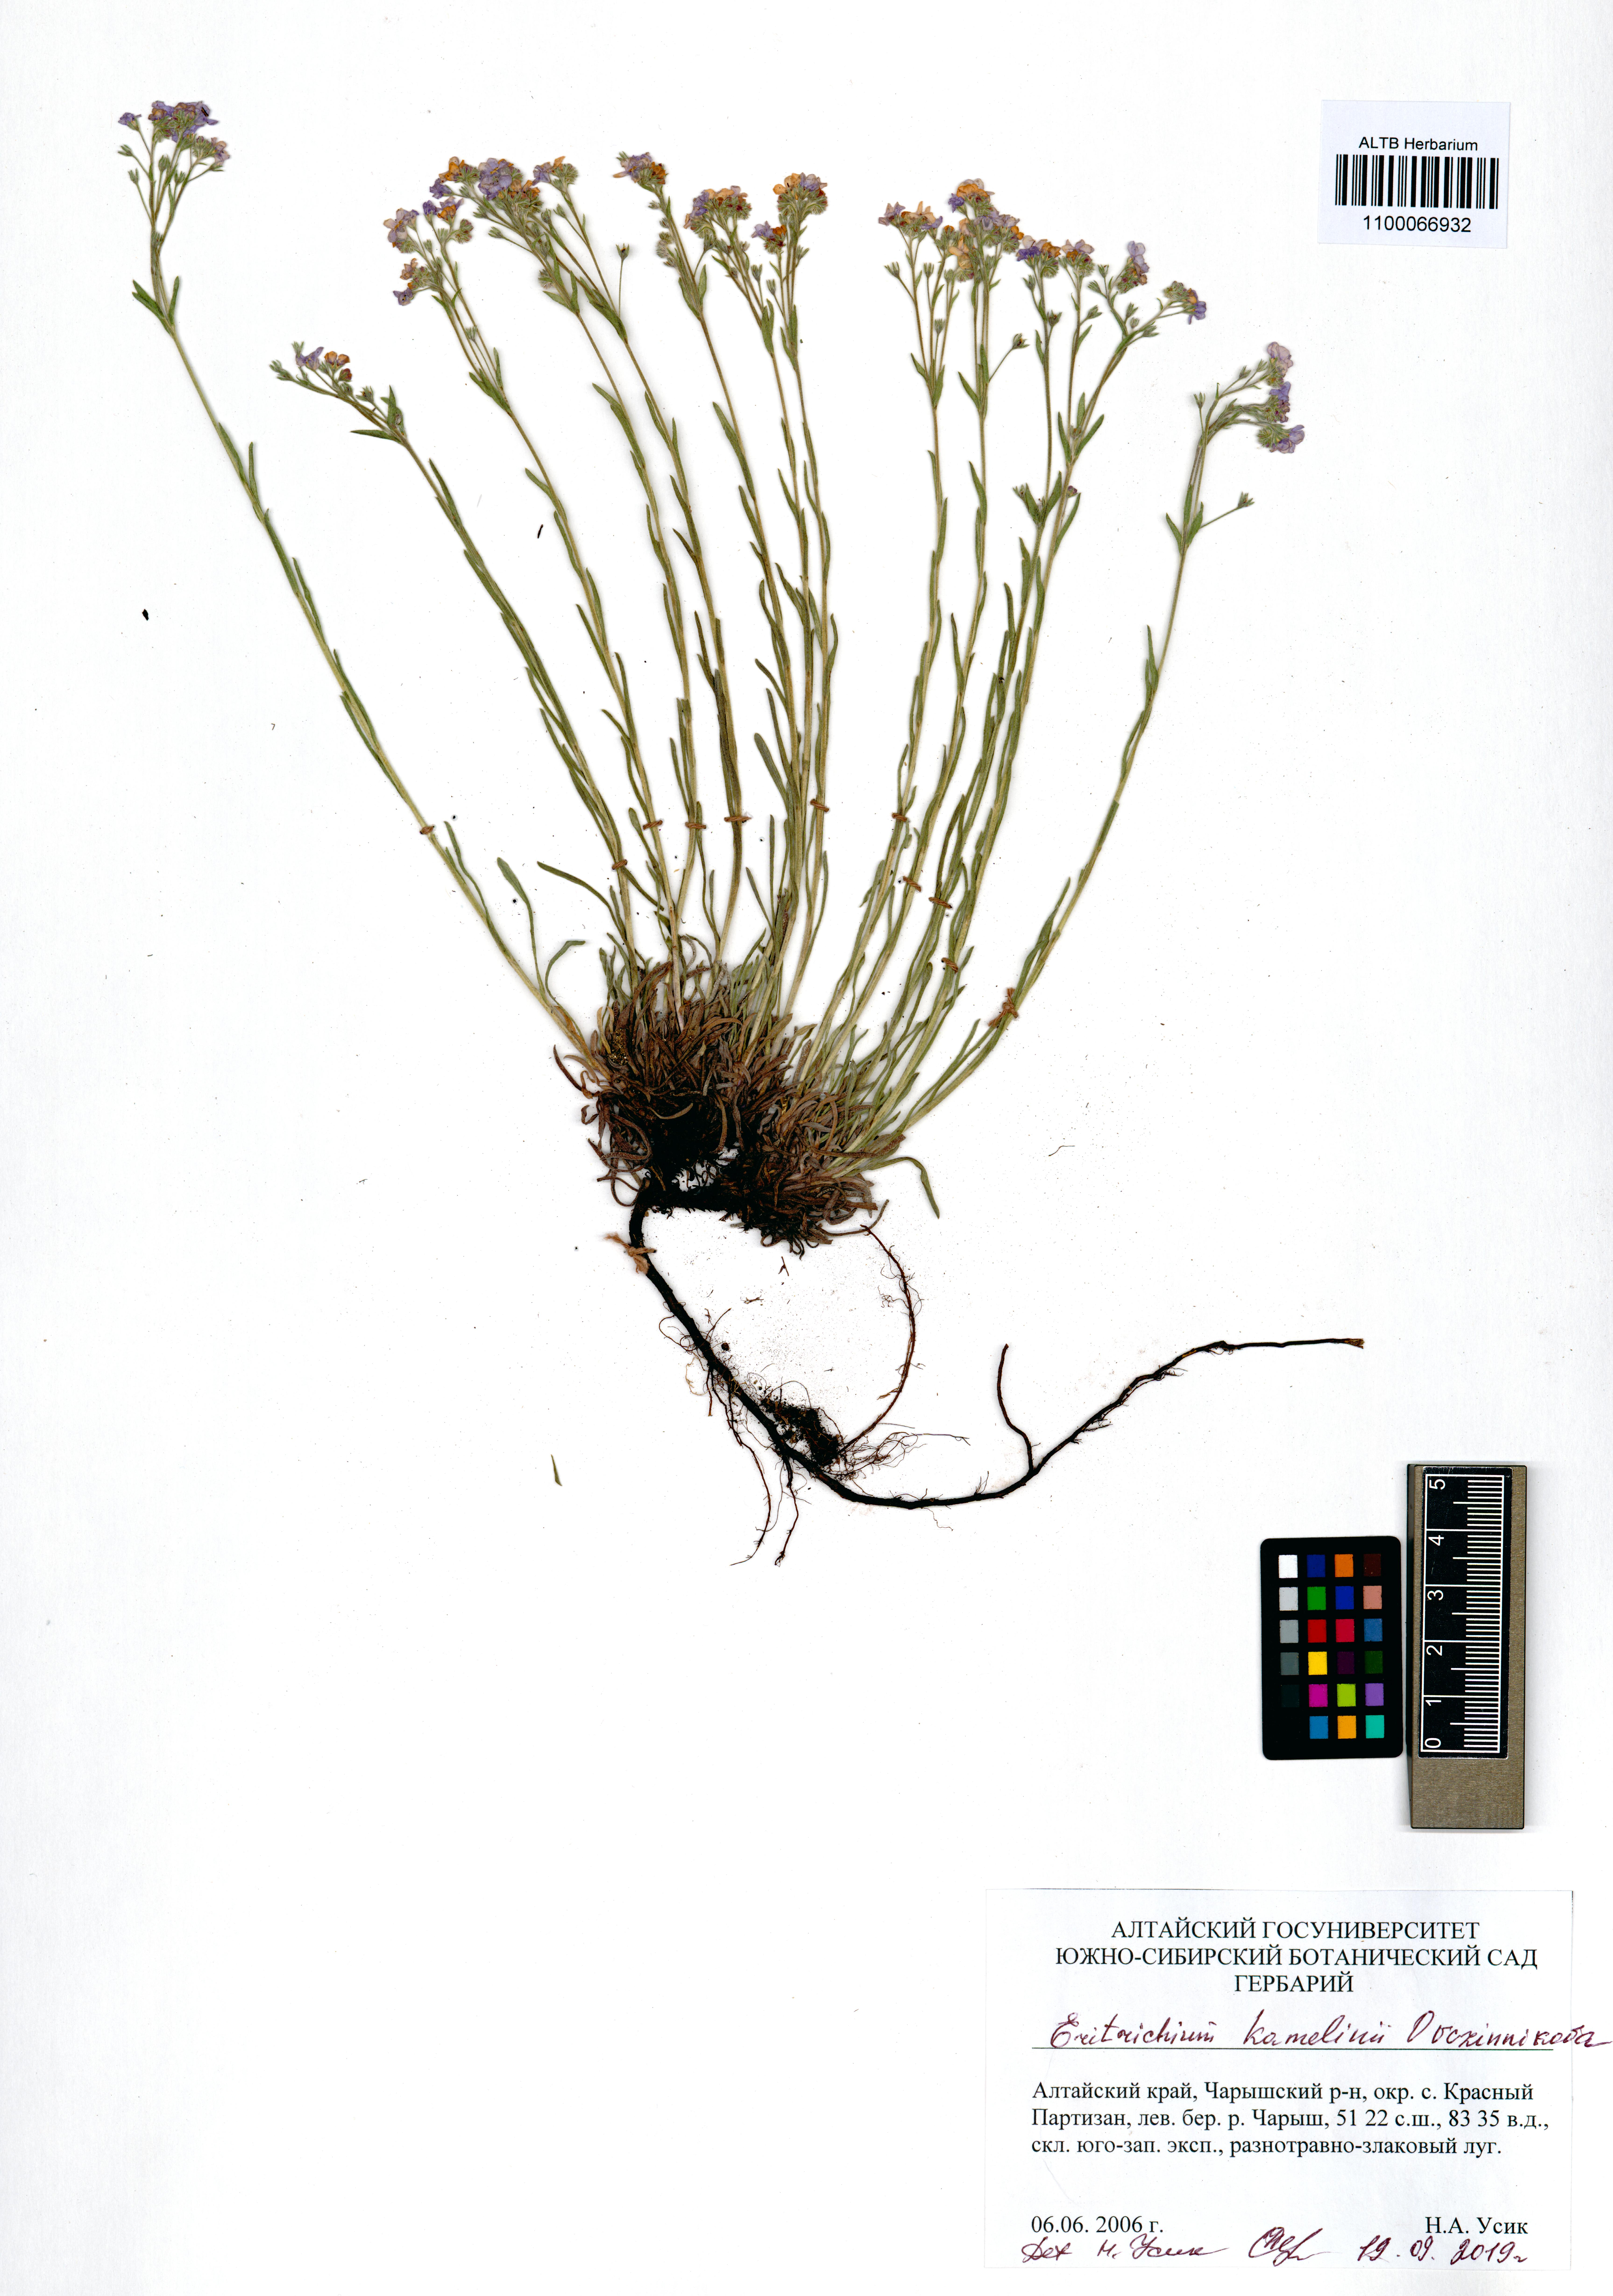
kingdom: Plantae
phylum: Tracheophyta
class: Magnoliopsida
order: Boraginales
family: Boraginaceae
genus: Eritrichium
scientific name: Eritrichium kamelinii
